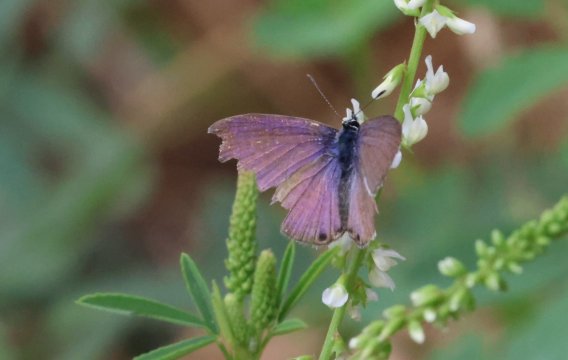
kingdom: Animalia
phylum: Arthropoda
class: Insecta
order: Lepidoptera
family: Lycaenidae
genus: Leptotes
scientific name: Leptotes marina
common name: Marine Blue
